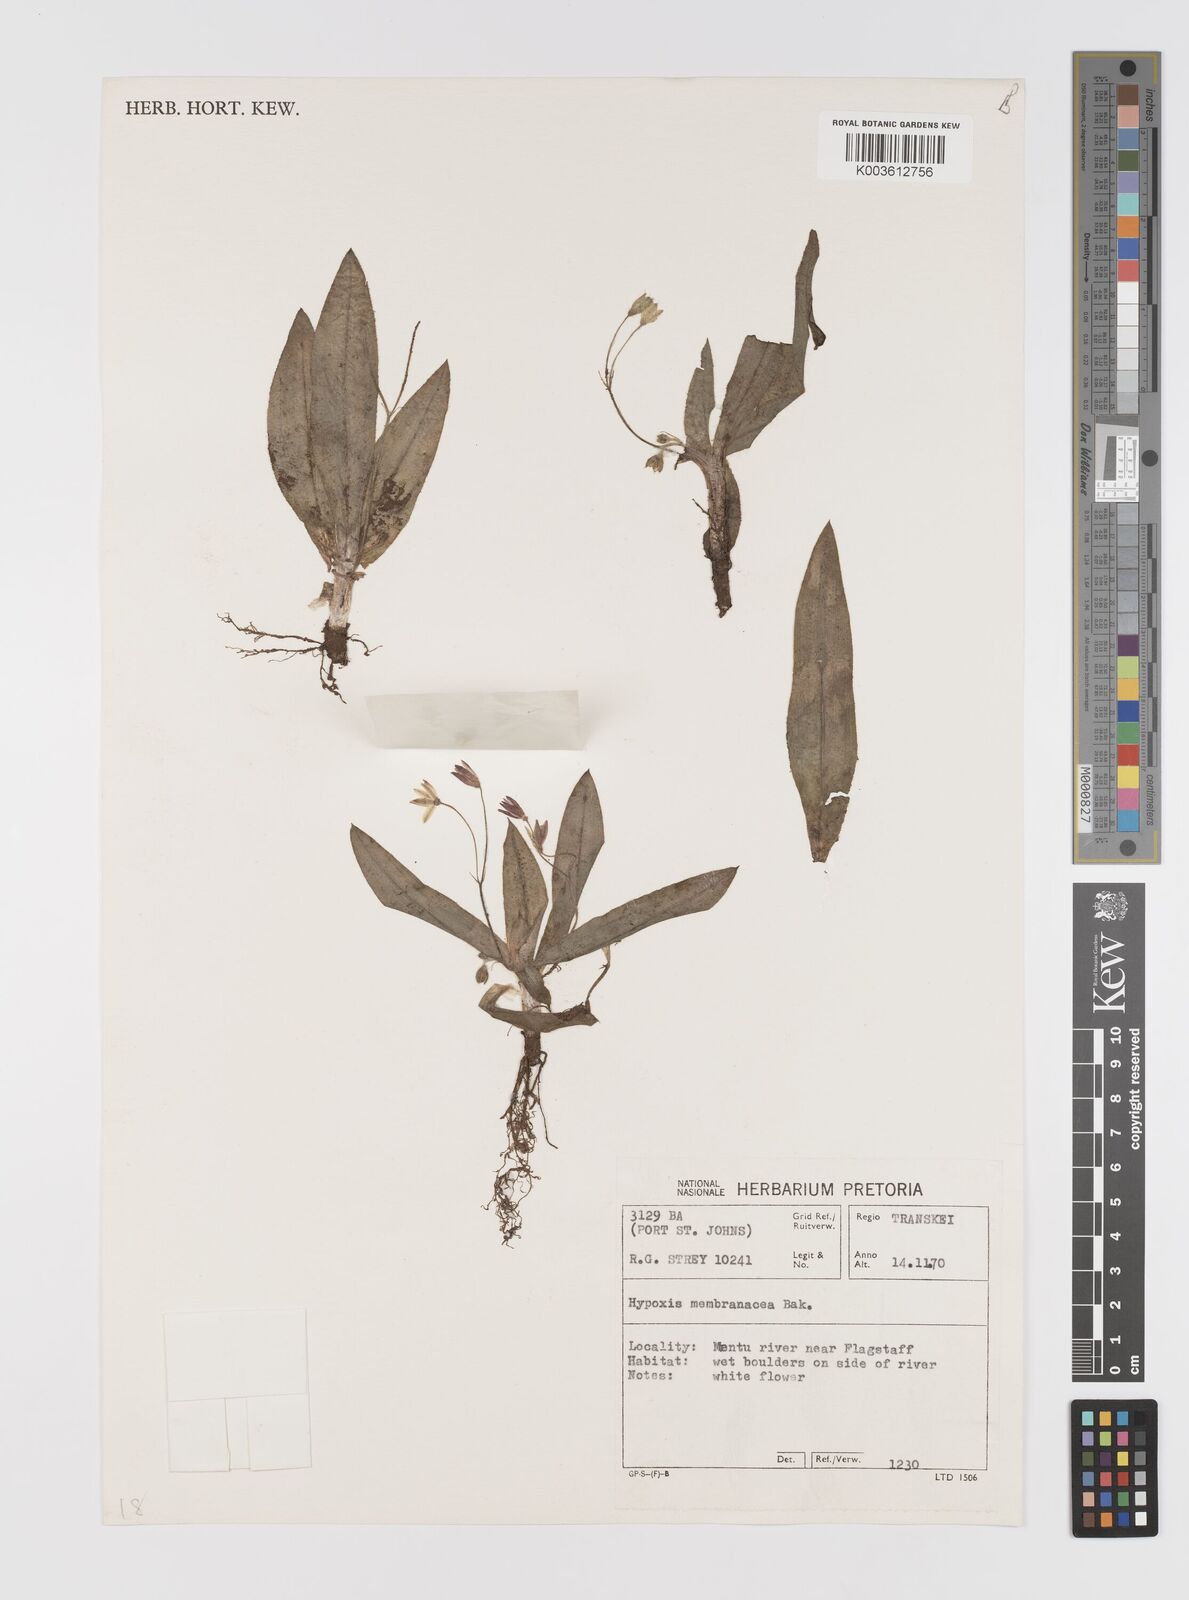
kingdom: Plantae
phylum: Tracheophyta
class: Liliopsida
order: Asparagales
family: Hypoxidaceae
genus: Hypoxis
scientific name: Hypoxis membranacea
